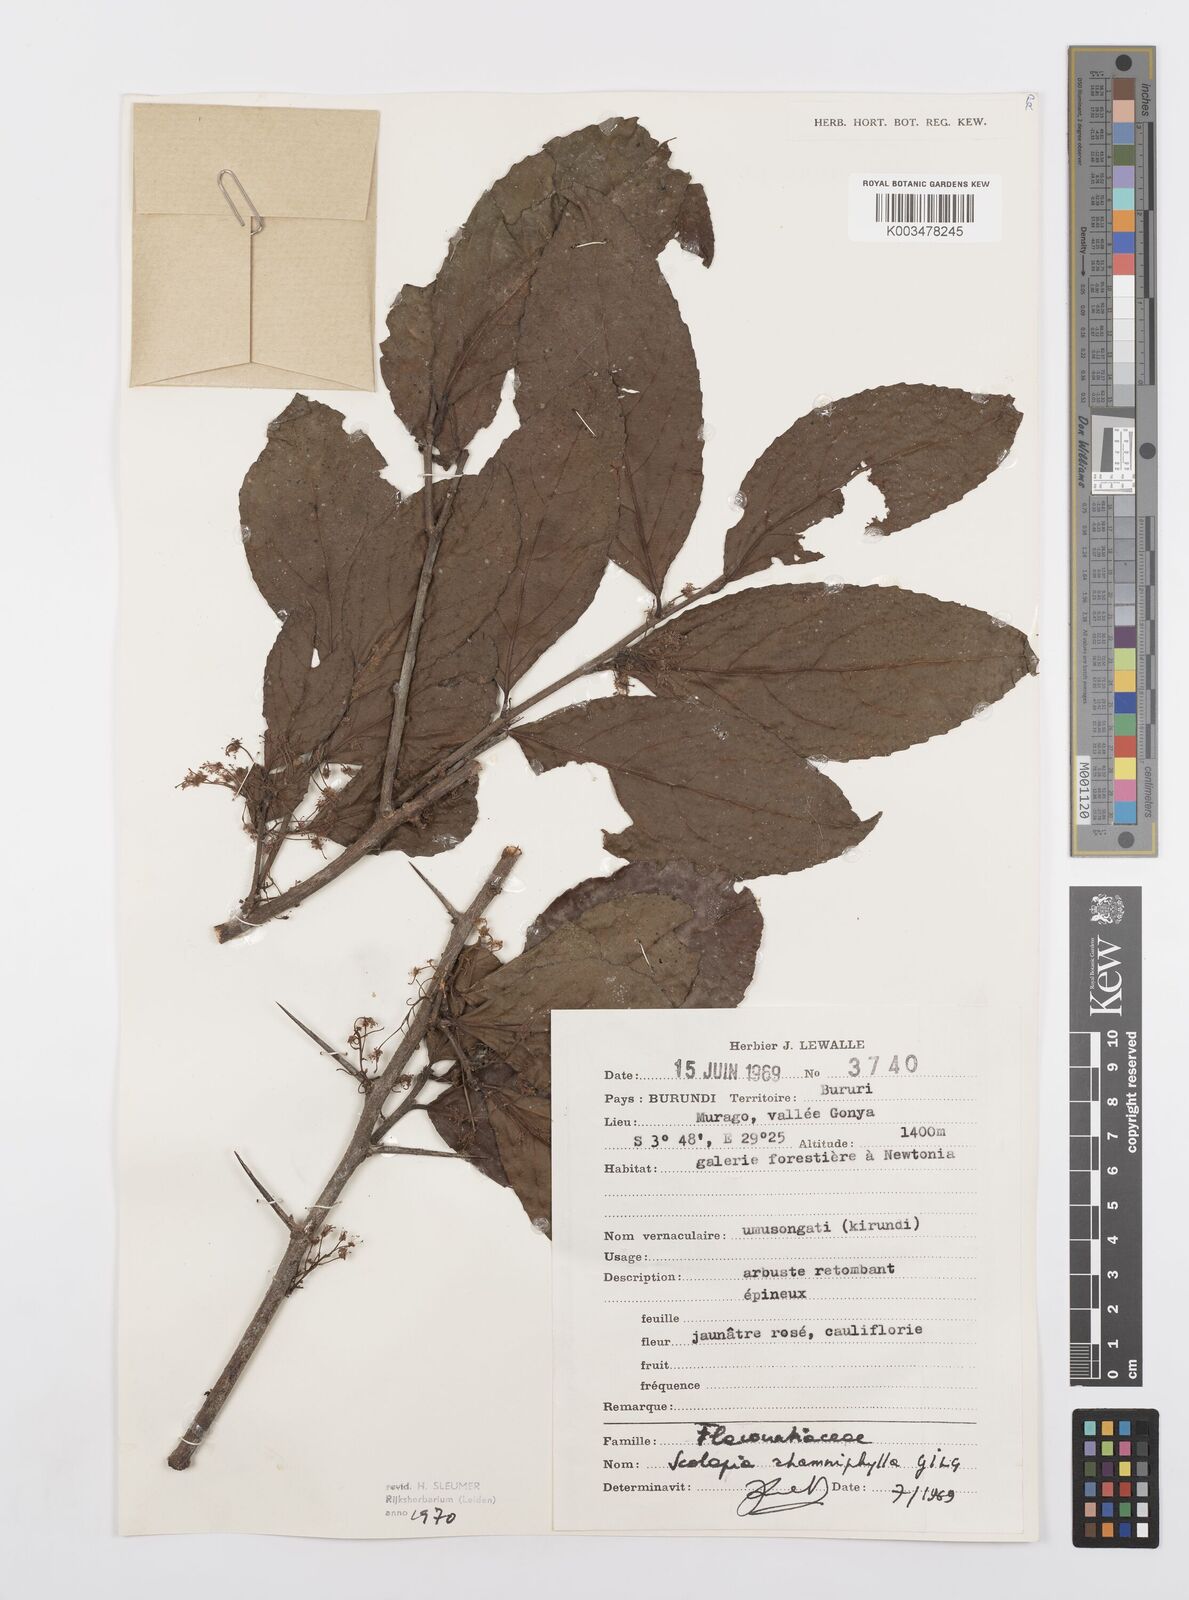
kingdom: Plantae
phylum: Tracheophyta
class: Magnoliopsida
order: Malpighiales
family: Salicaceae
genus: Scolopia
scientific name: Scolopia rhamniphylla
